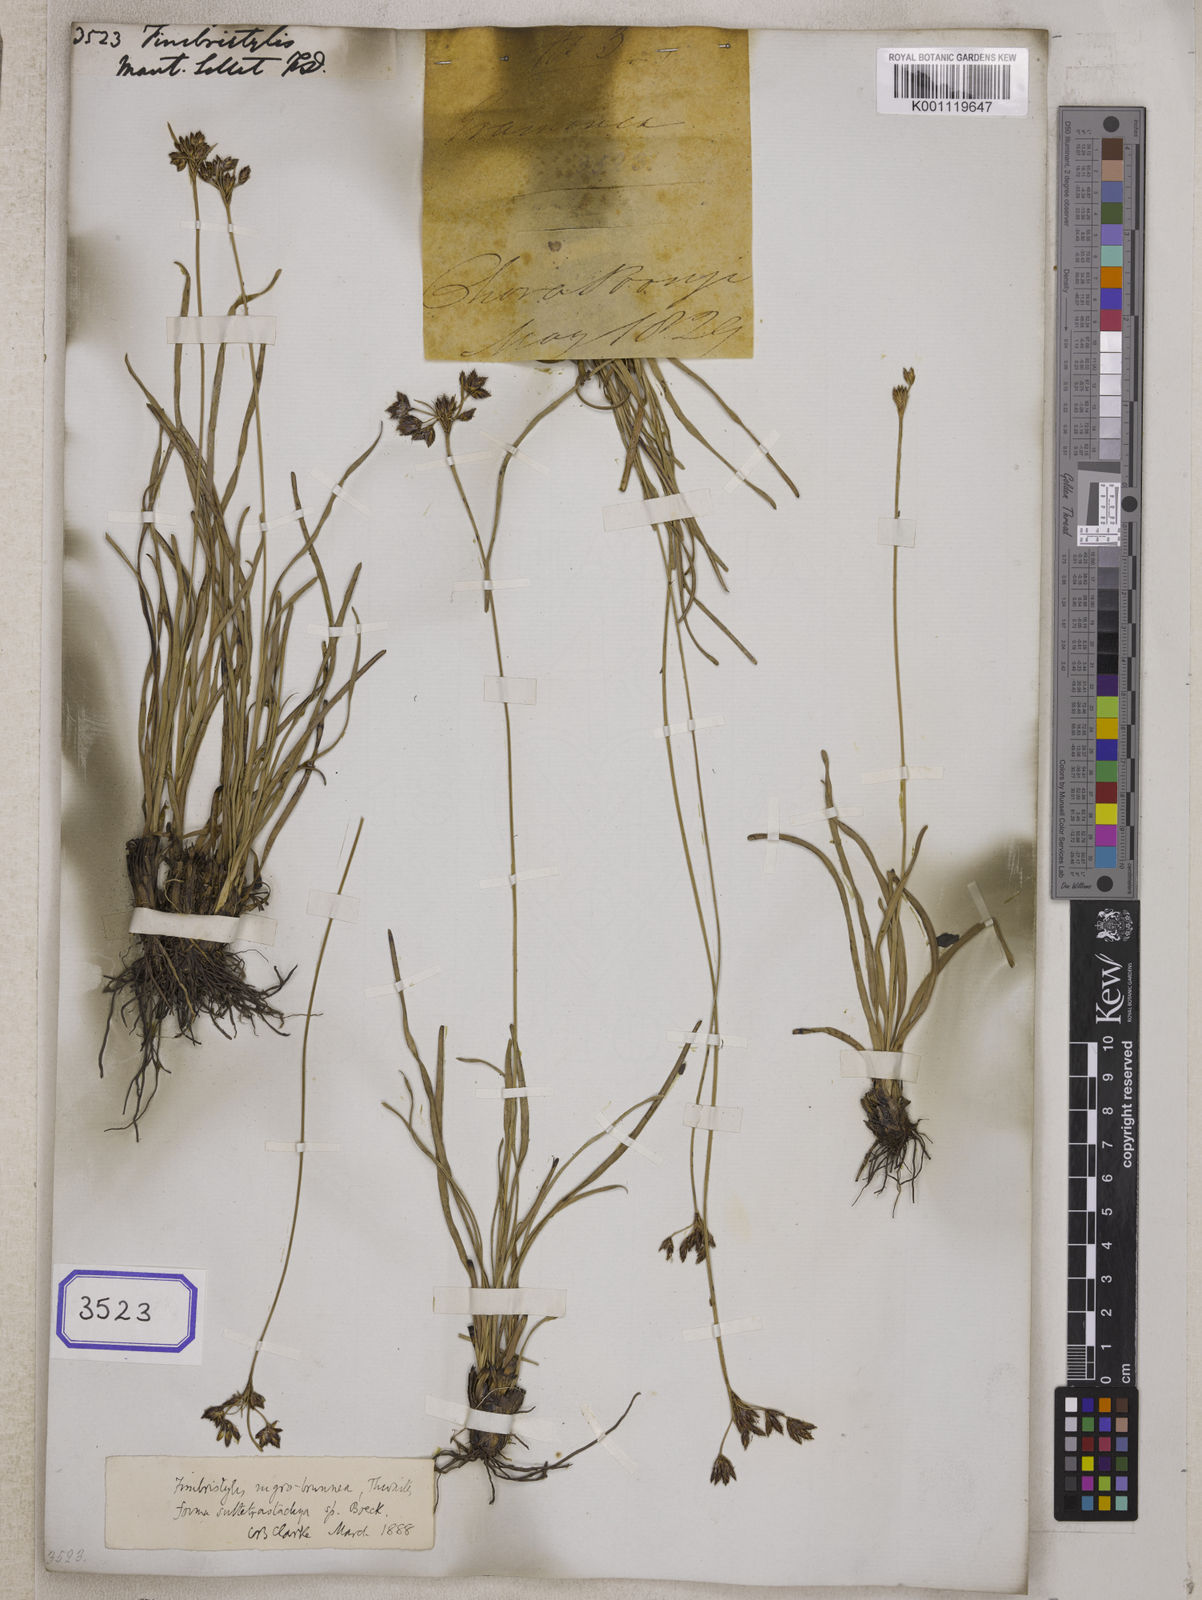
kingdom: Plantae
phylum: Tracheophyta
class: Liliopsida
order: Poales
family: Cyperaceae
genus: Fimbristylis
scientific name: Fimbristylis
